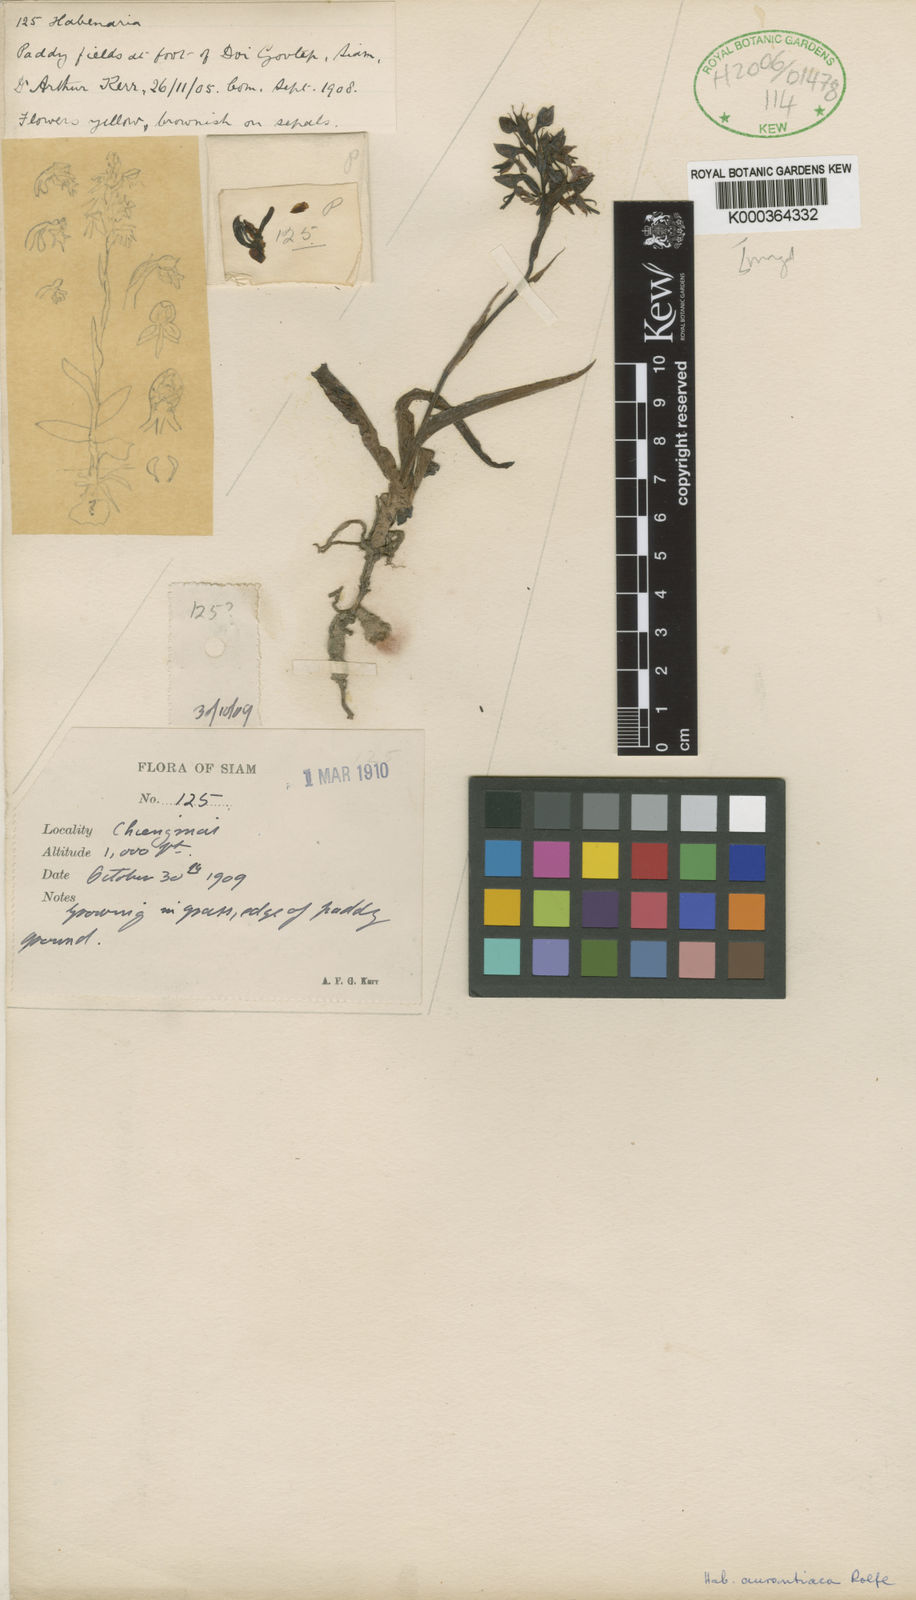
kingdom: Plantae
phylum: Tracheophyta
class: Liliopsida
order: Asparagales
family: Orchidaceae
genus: Habenaria
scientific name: Habenaria marginata
